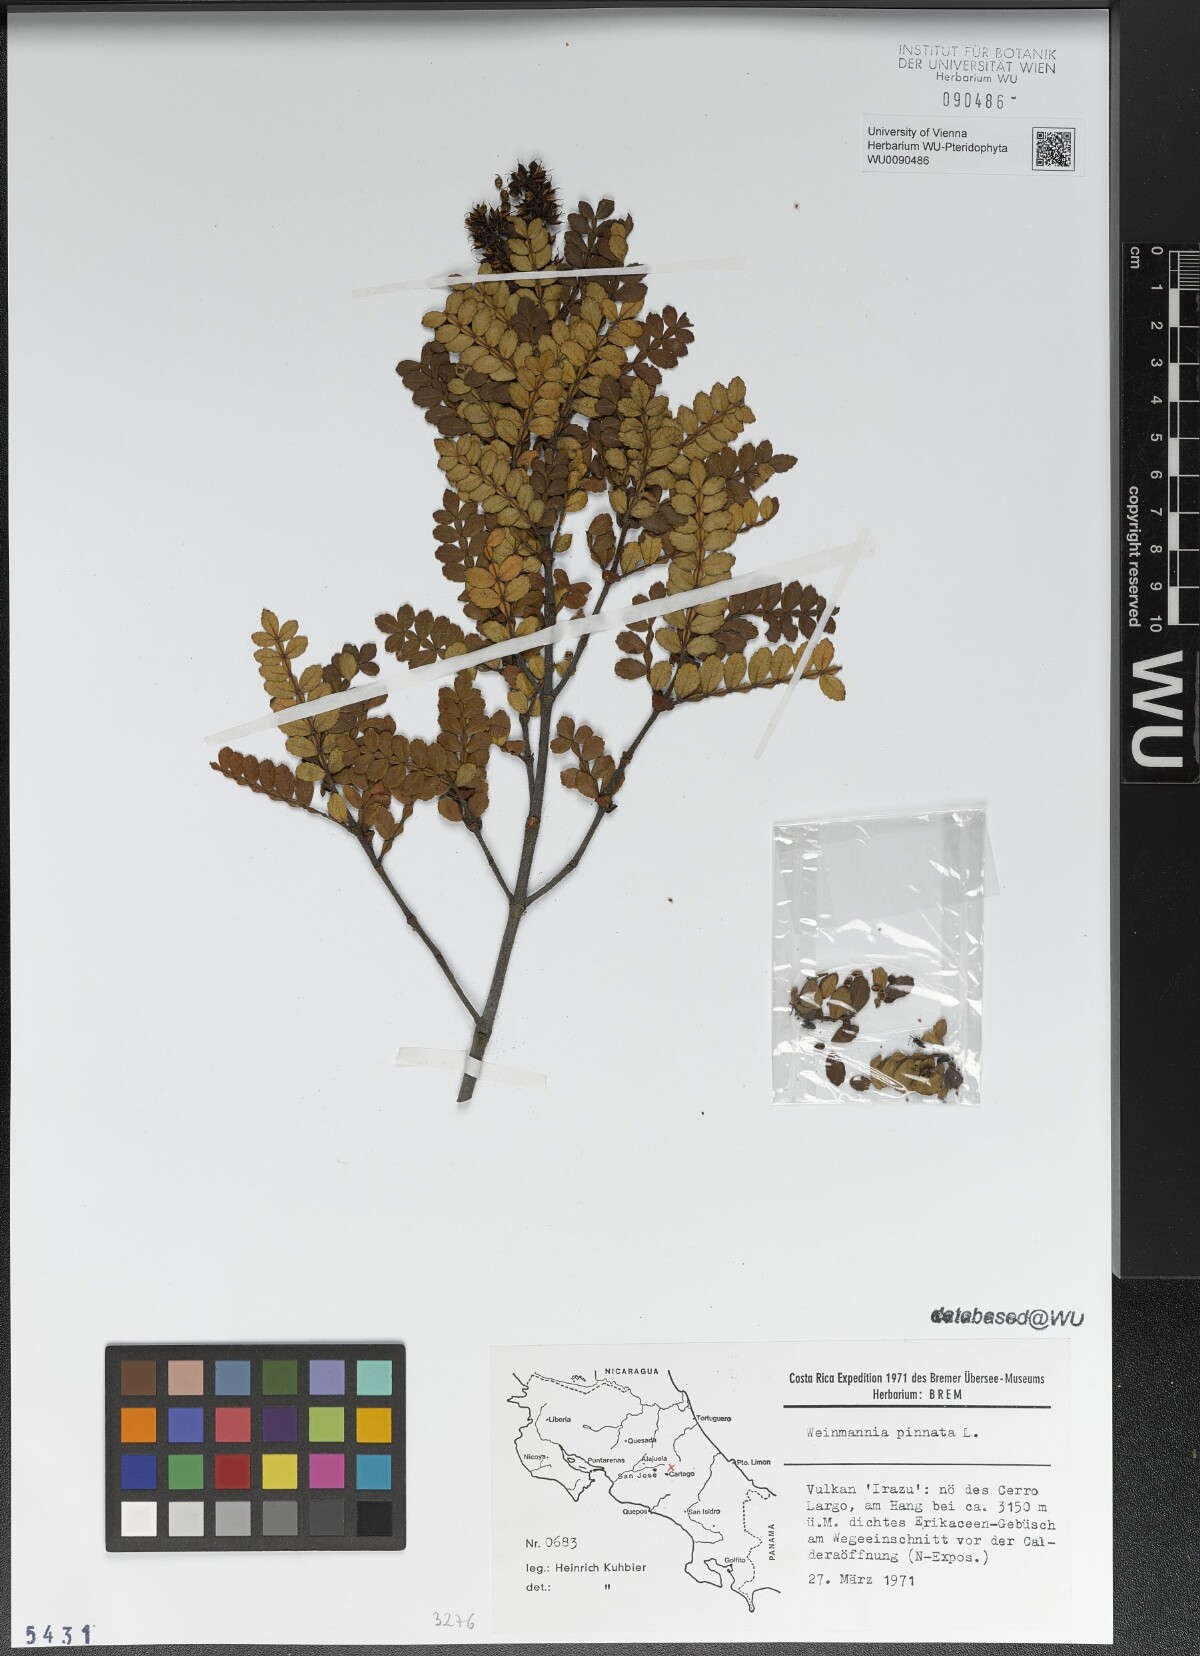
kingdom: Plantae
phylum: Tracheophyta
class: Magnoliopsida
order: Oxalidales
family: Cunoniaceae
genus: Weinmannia
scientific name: Weinmannia pinnata
